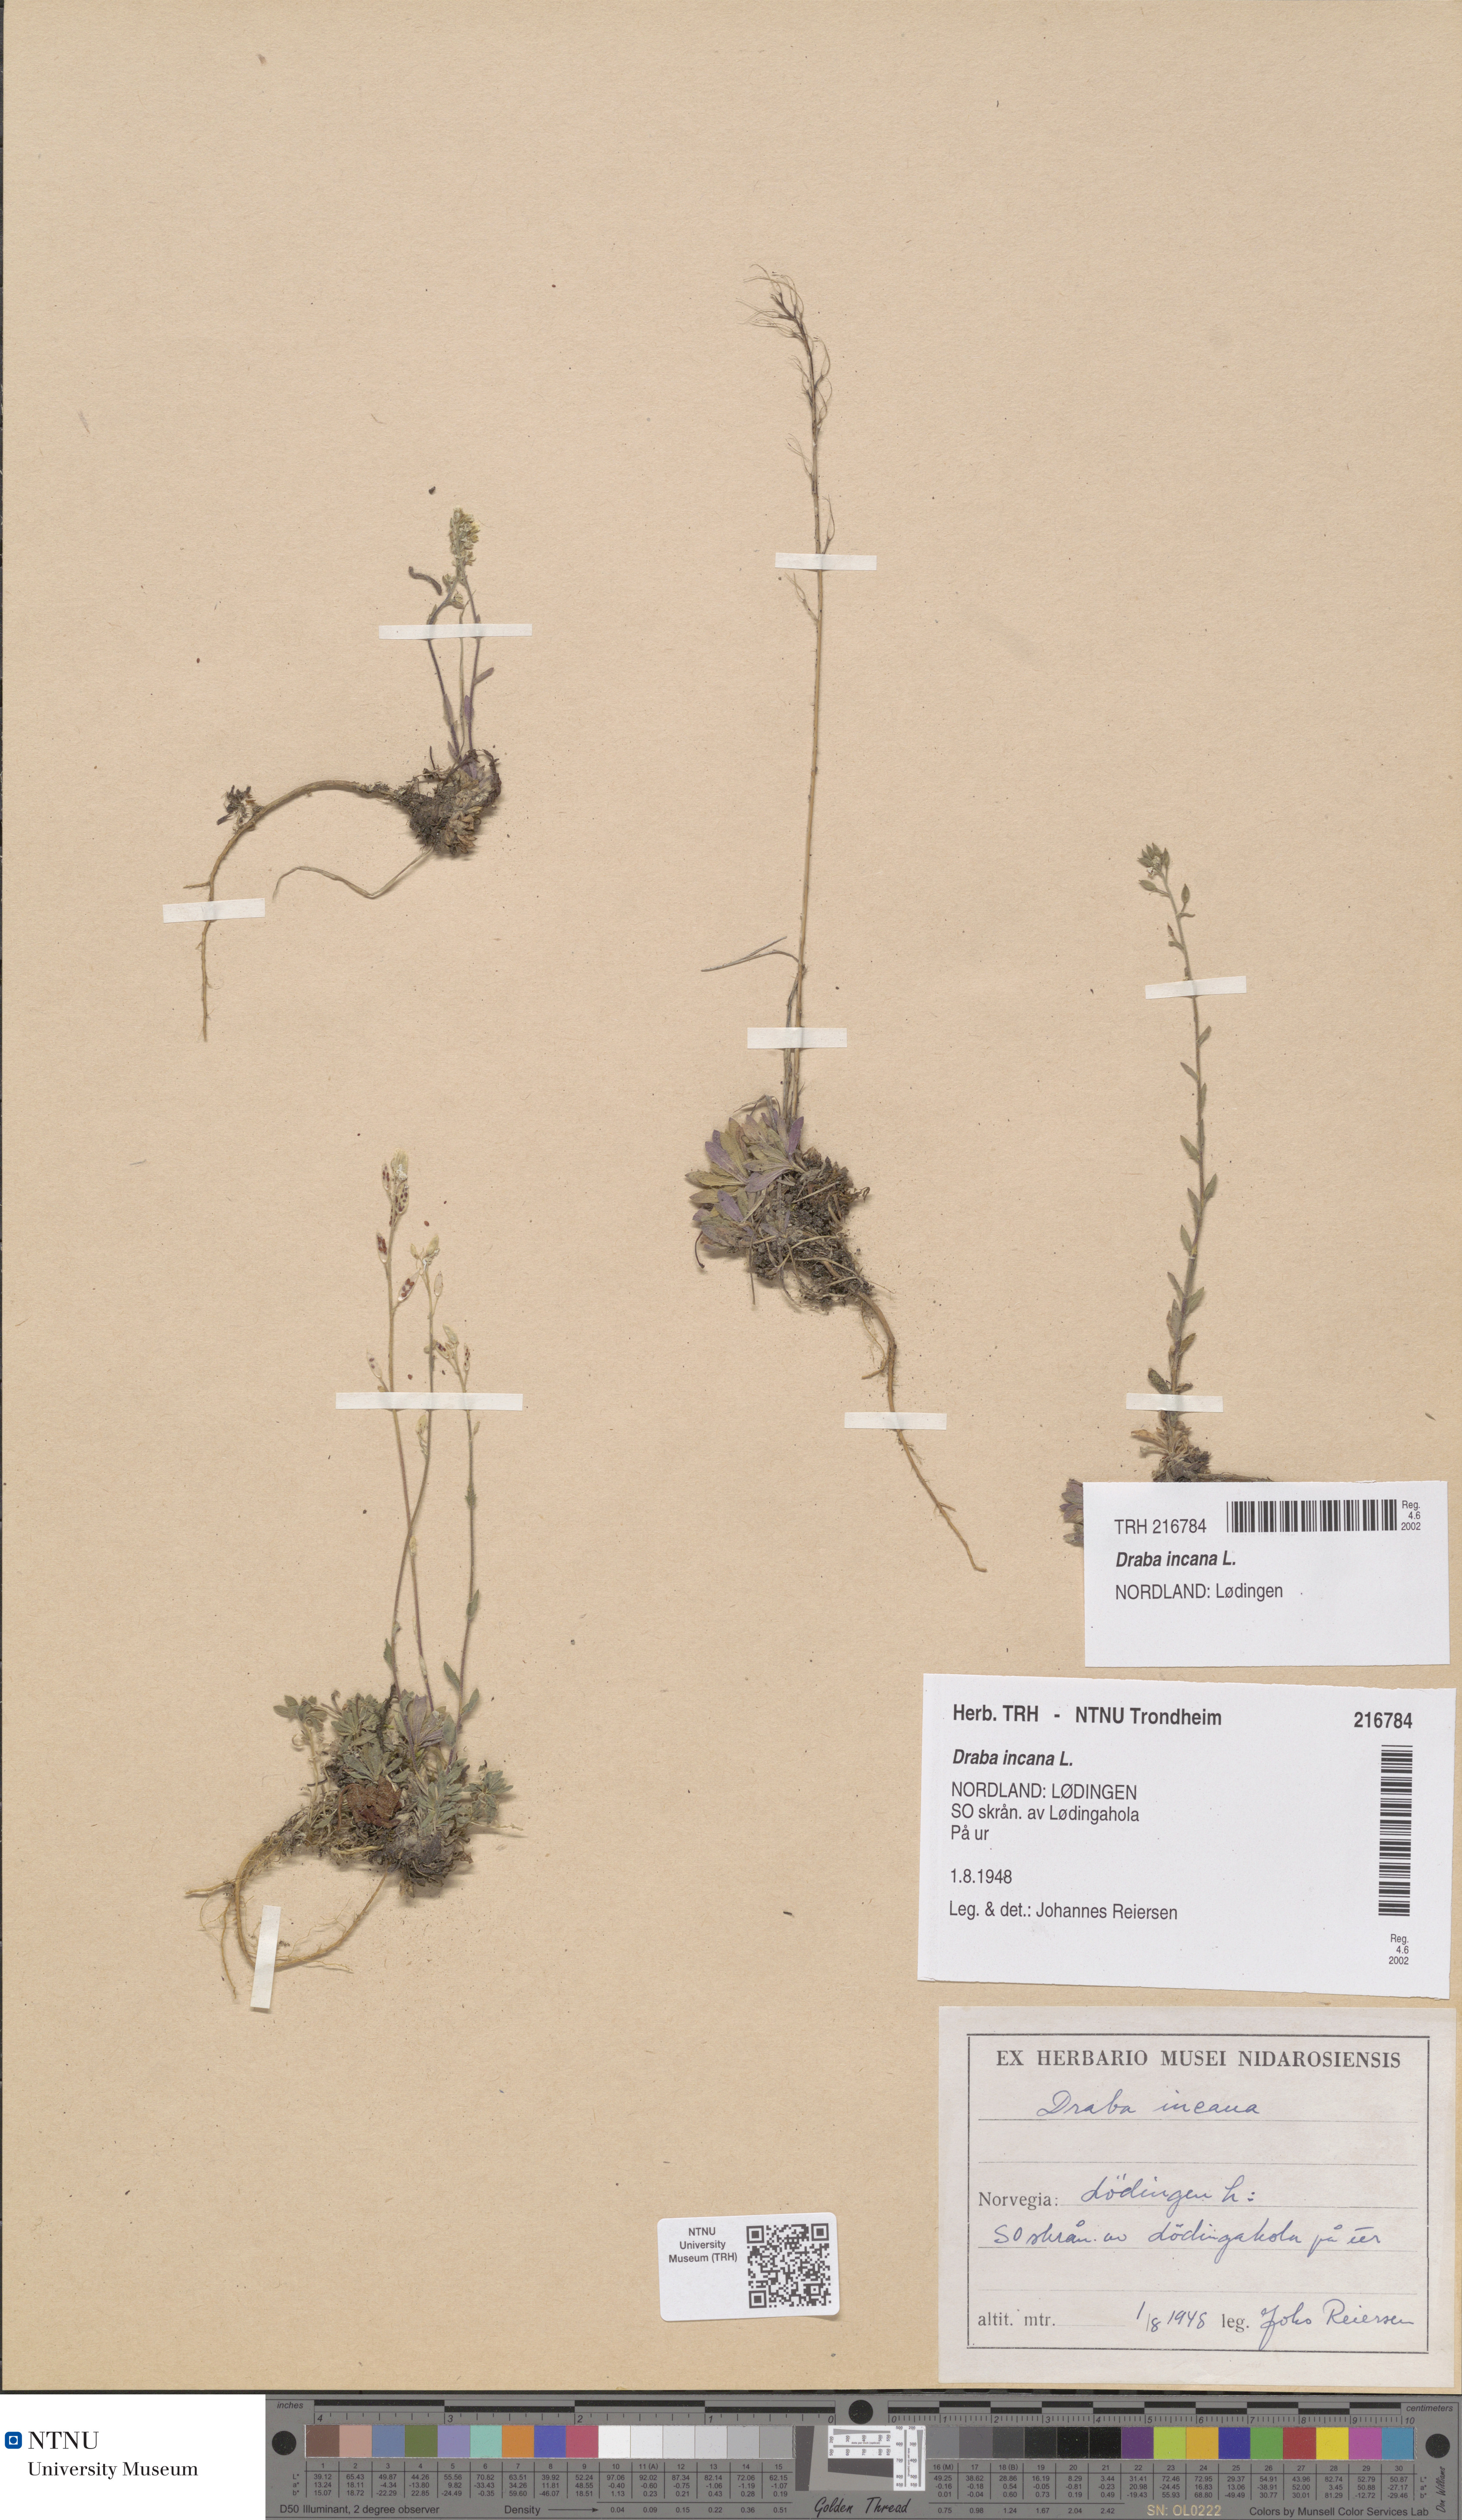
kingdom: Plantae
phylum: Tracheophyta
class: Magnoliopsida
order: Brassicales
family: Brassicaceae
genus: Draba
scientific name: Draba incana
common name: Hoary whitlow-grass
